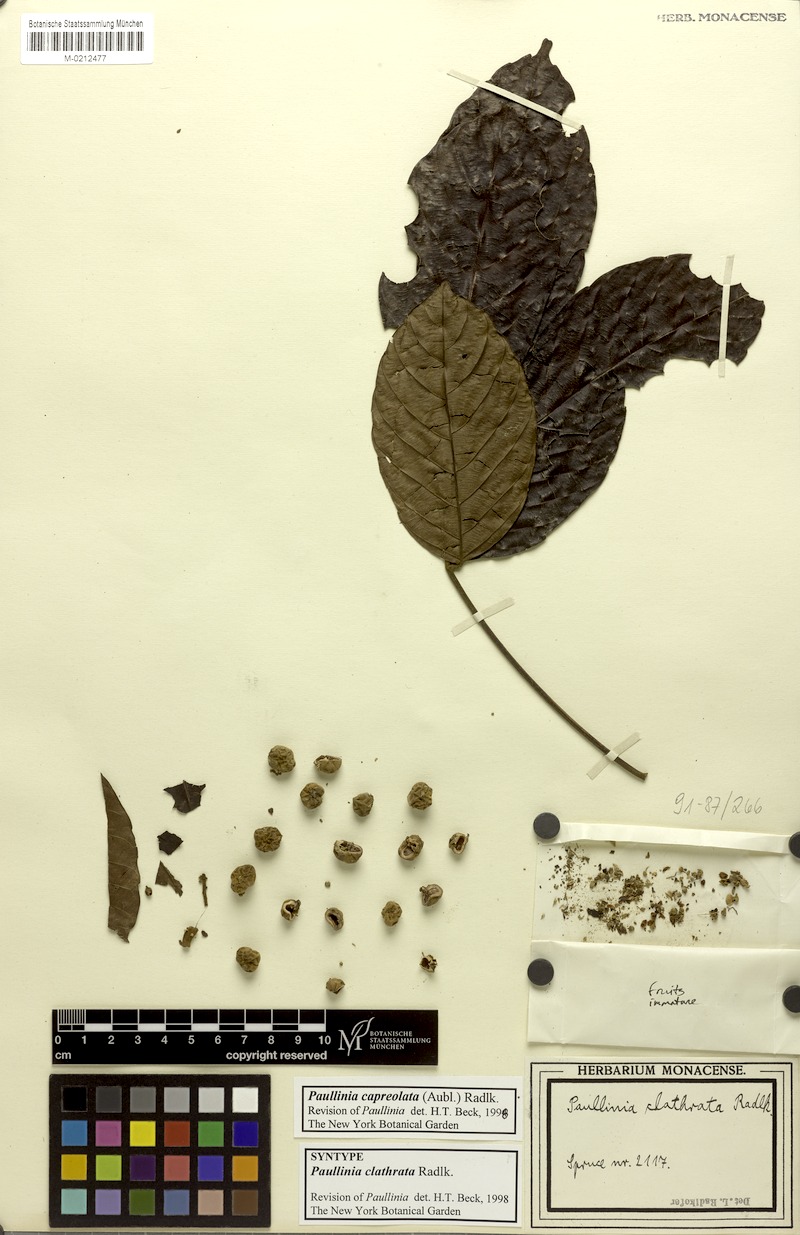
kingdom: Plantae
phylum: Tracheophyta
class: Magnoliopsida
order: Sapindales
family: Sapindaceae
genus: Paullinia
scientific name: Paullinia capreolata
